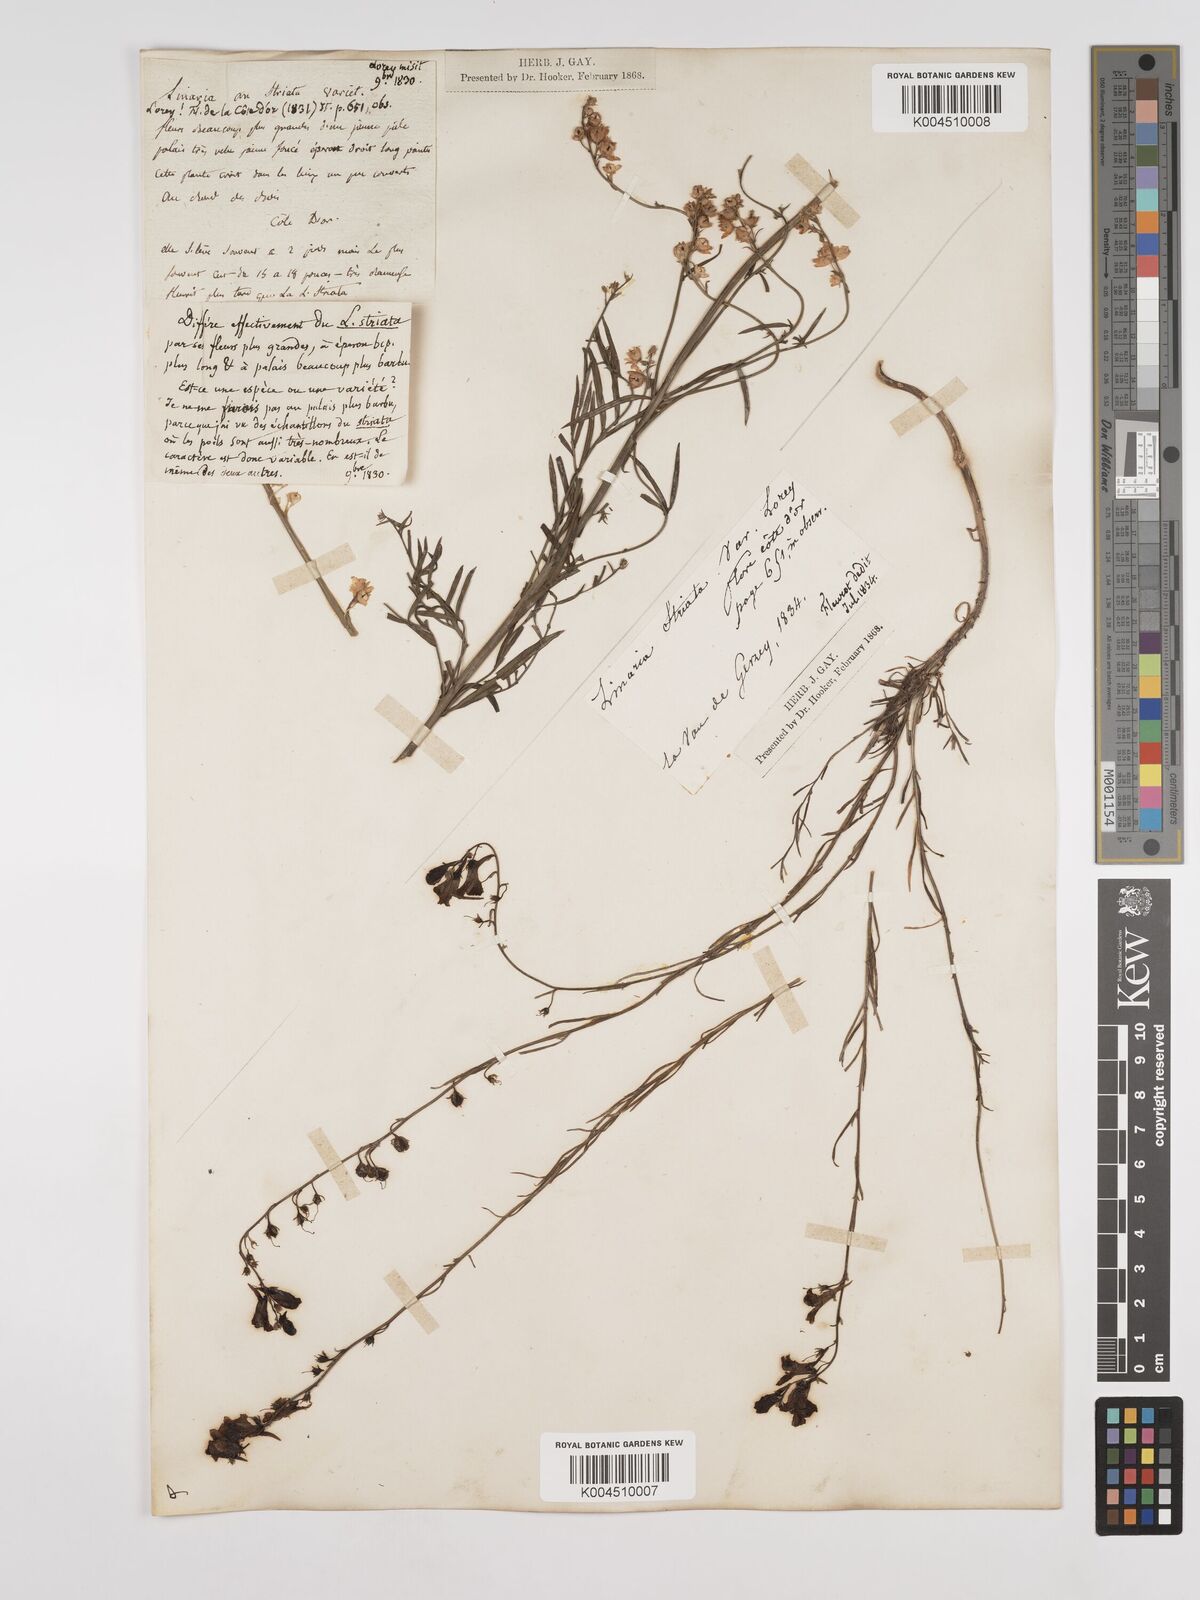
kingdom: Plantae
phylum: Tracheophyta
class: Magnoliopsida
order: Lamiales
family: Plantaginaceae
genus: Linaria
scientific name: Linaria repens
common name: Pale toadflax
